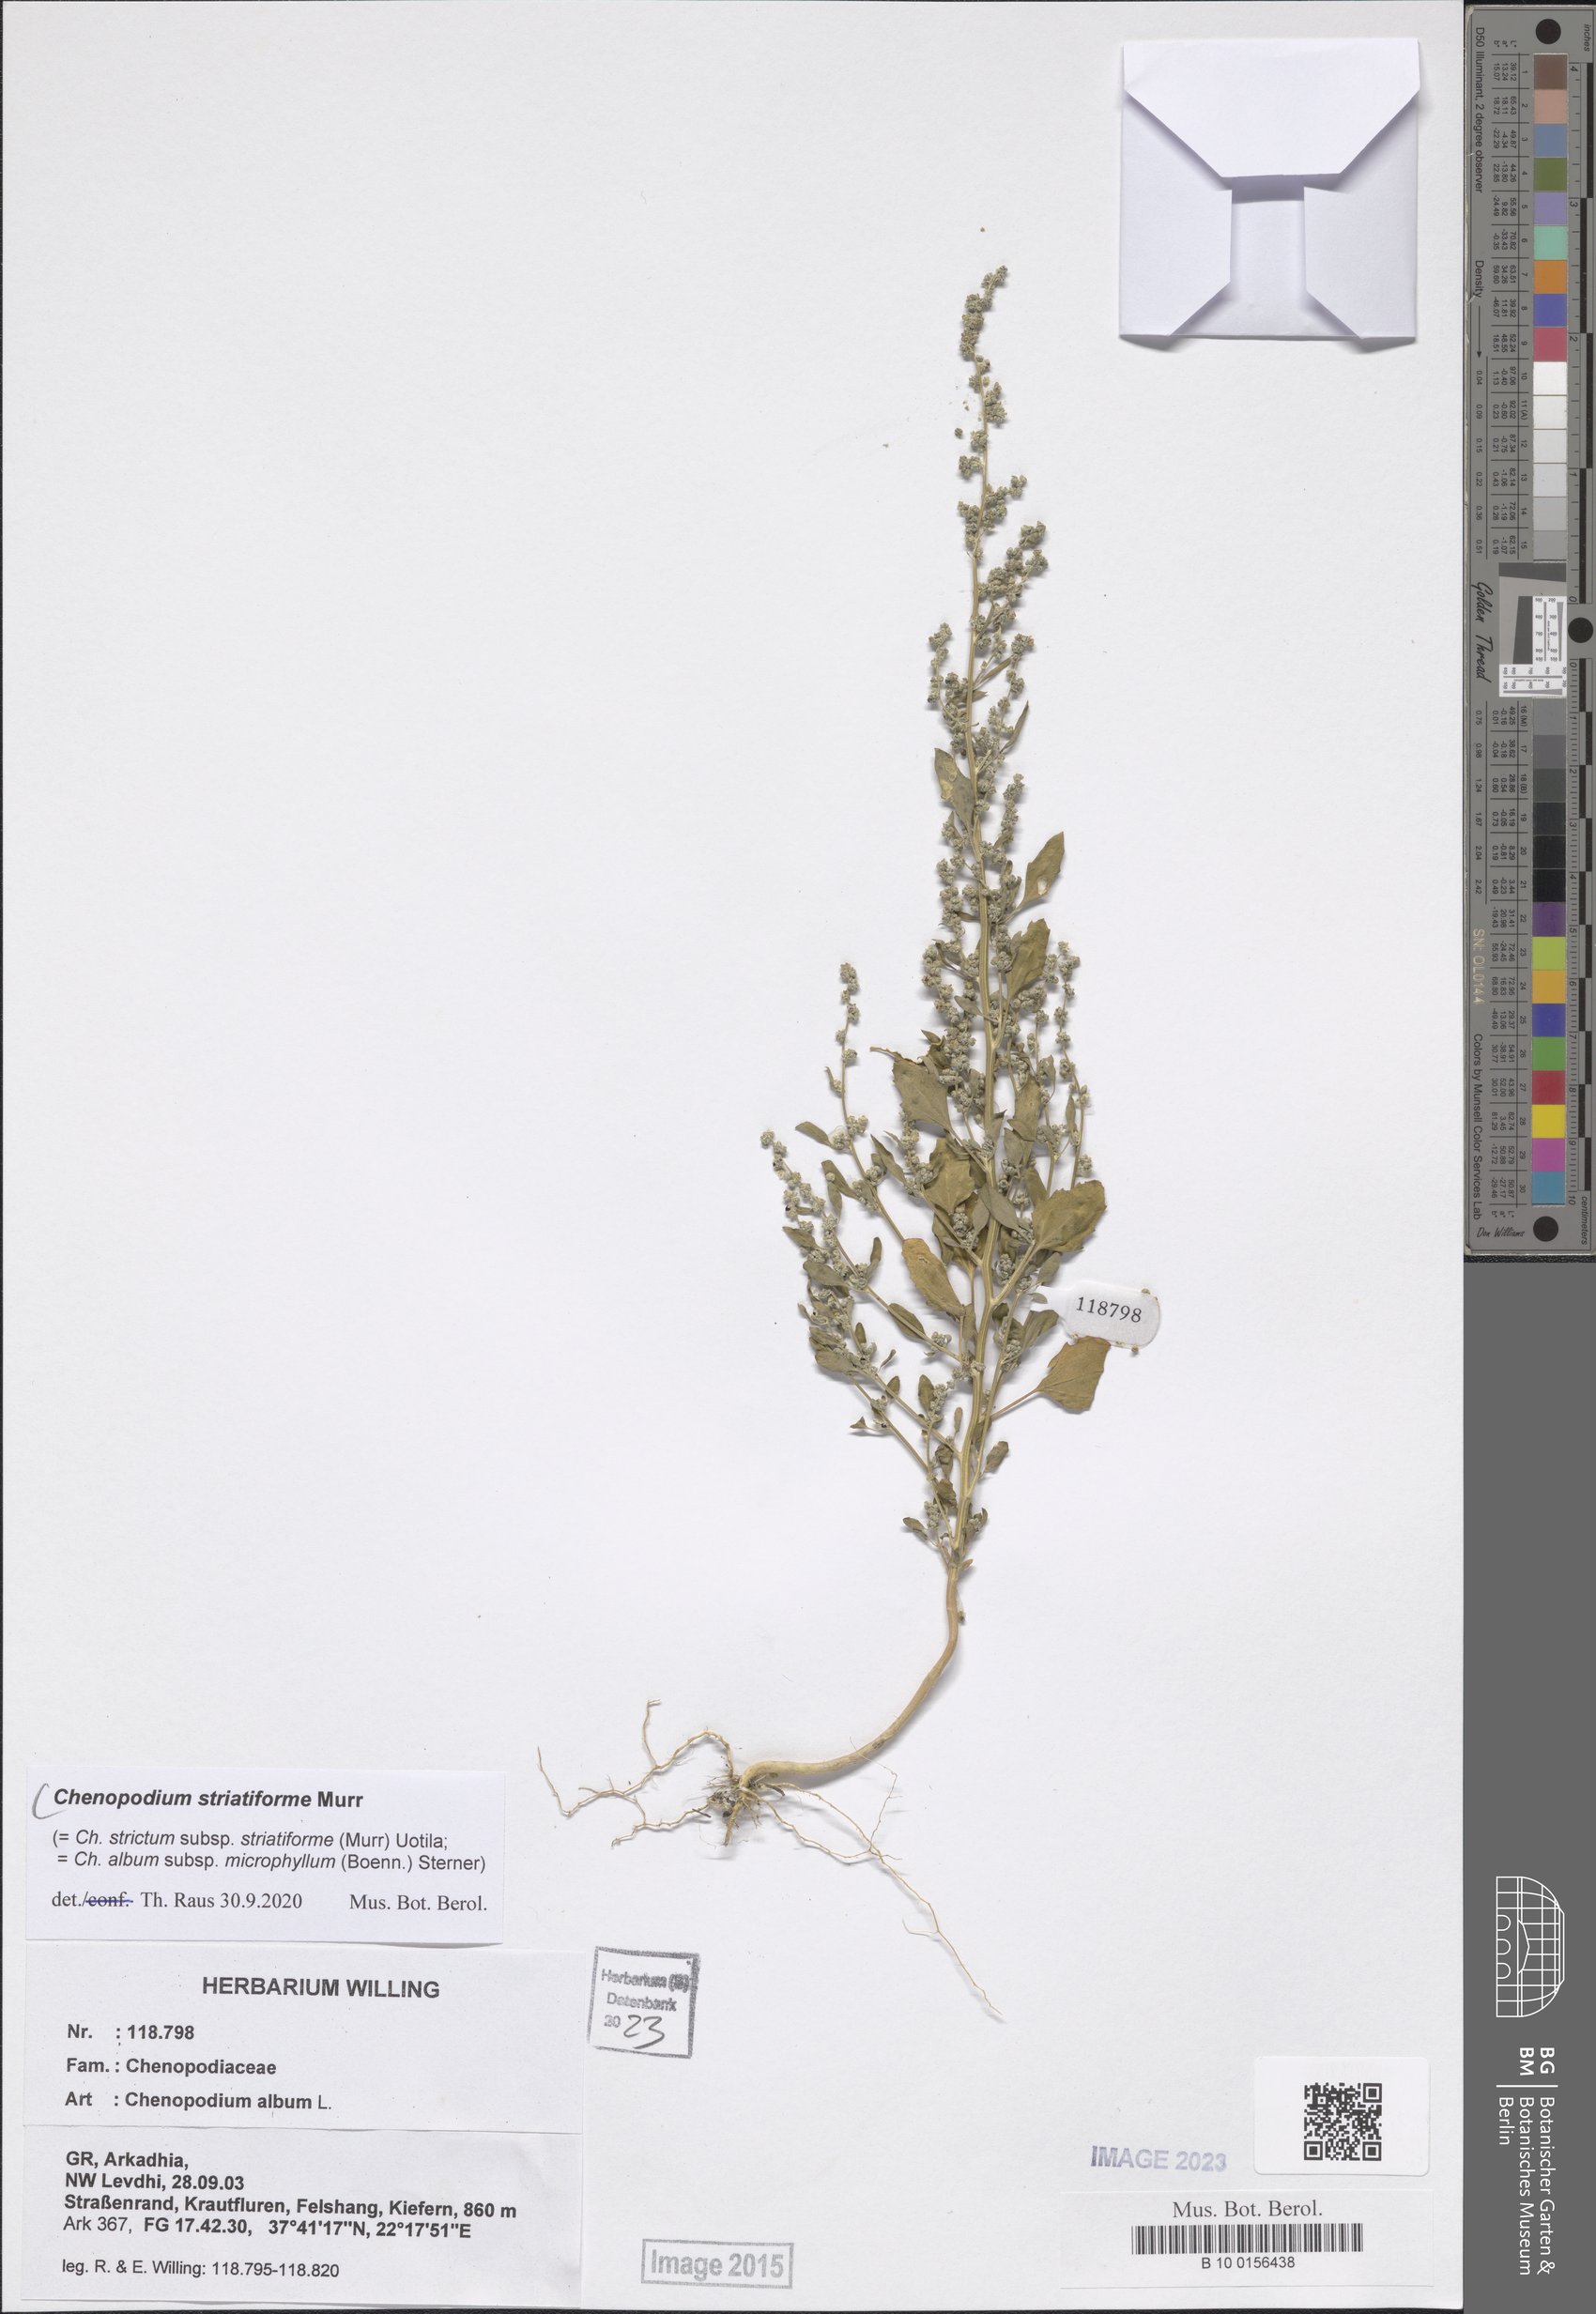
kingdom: Plantae
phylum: Tracheophyta
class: Magnoliopsida
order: Caryophyllales
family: Amaranthaceae
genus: Chenopodium
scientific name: Chenopodium striatiforme
